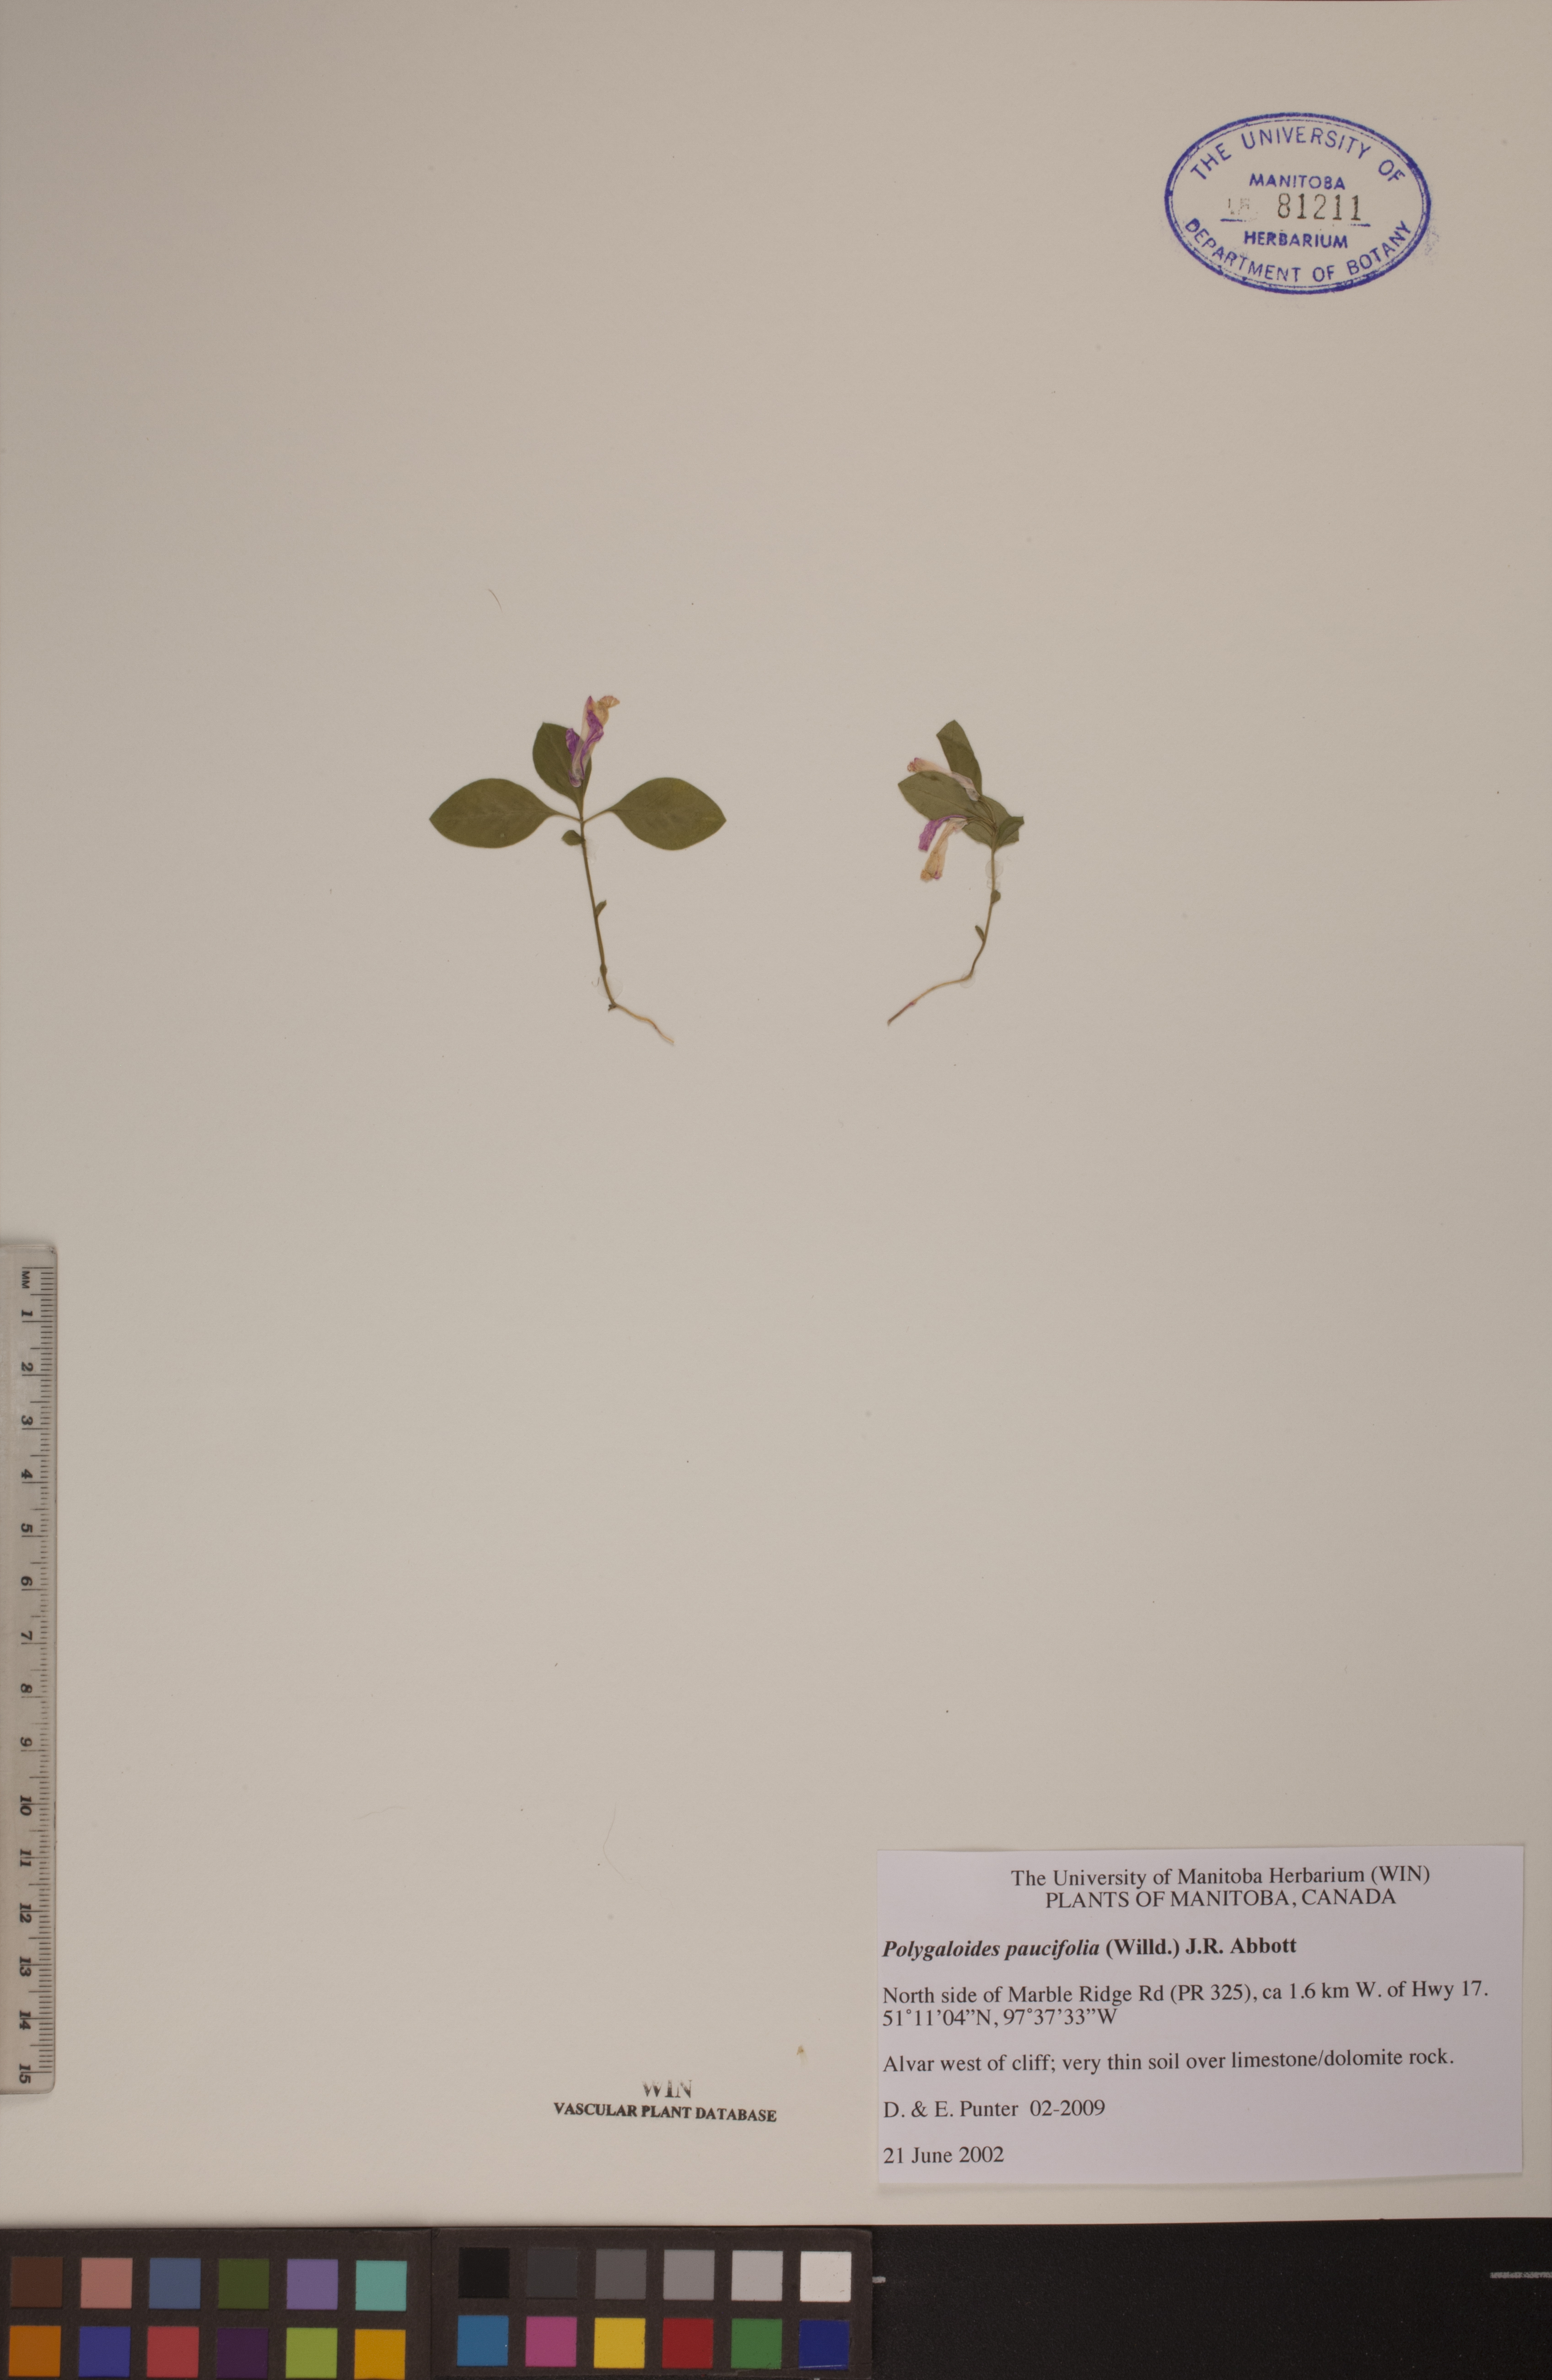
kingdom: Plantae
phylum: Tracheophyta
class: Magnoliopsida
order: Fabales
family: Polygalaceae
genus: Polygaloides
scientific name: Polygaloides paucifolia
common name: Bird-on-the-wing
